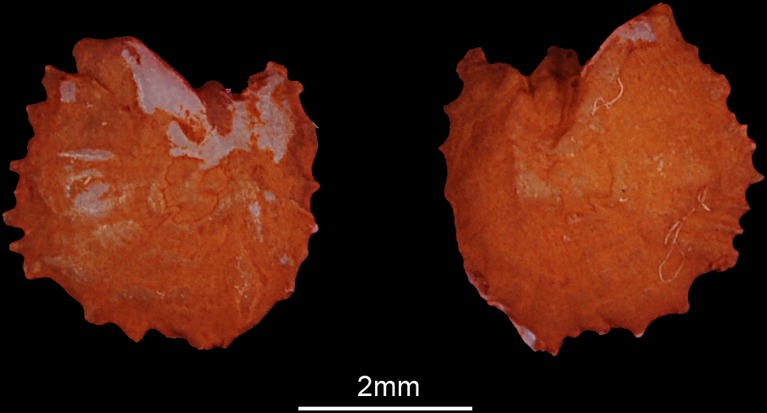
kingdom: Animalia
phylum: Chordata
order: Cypriniformes
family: Cyprinidae
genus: Squalius
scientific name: Squalius cephalus
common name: Chub
